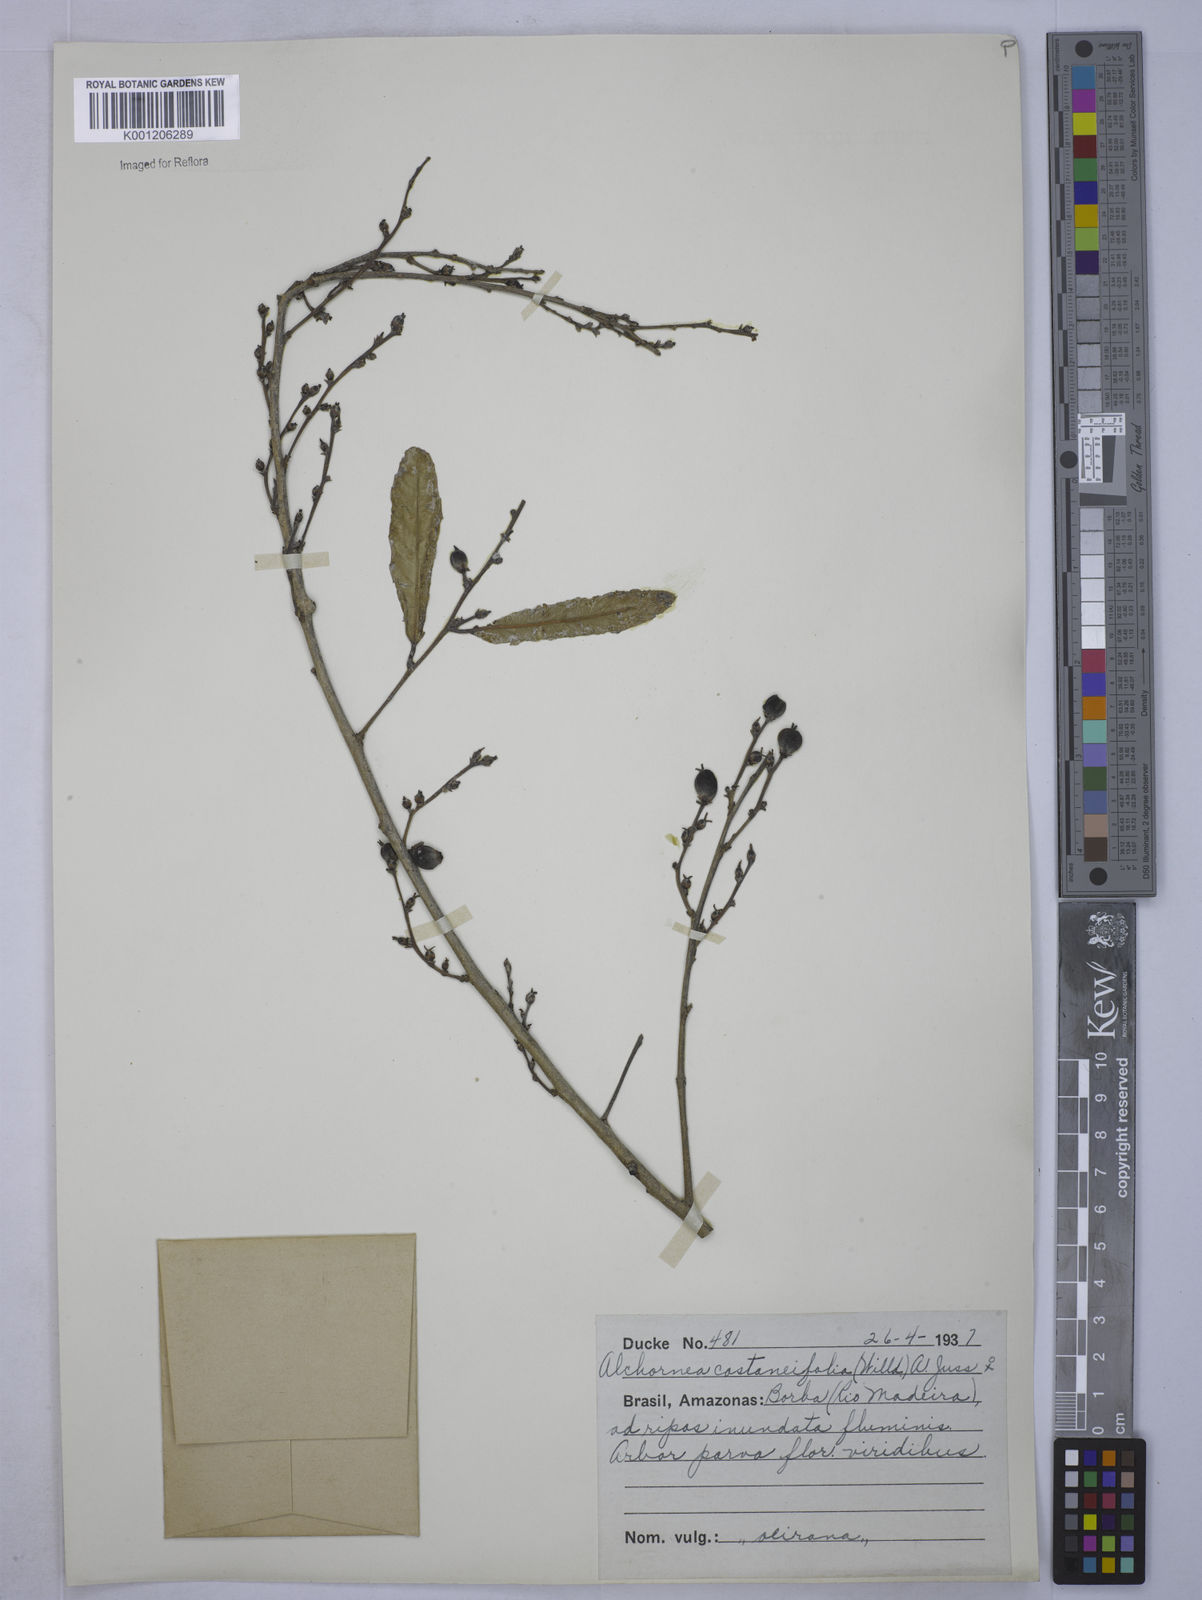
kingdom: Plantae
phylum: Tracheophyta
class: Magnoliopsida
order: Malpighiales
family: Euphorbiaceae
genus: Alchornea
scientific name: Alchornea castaneifolia
